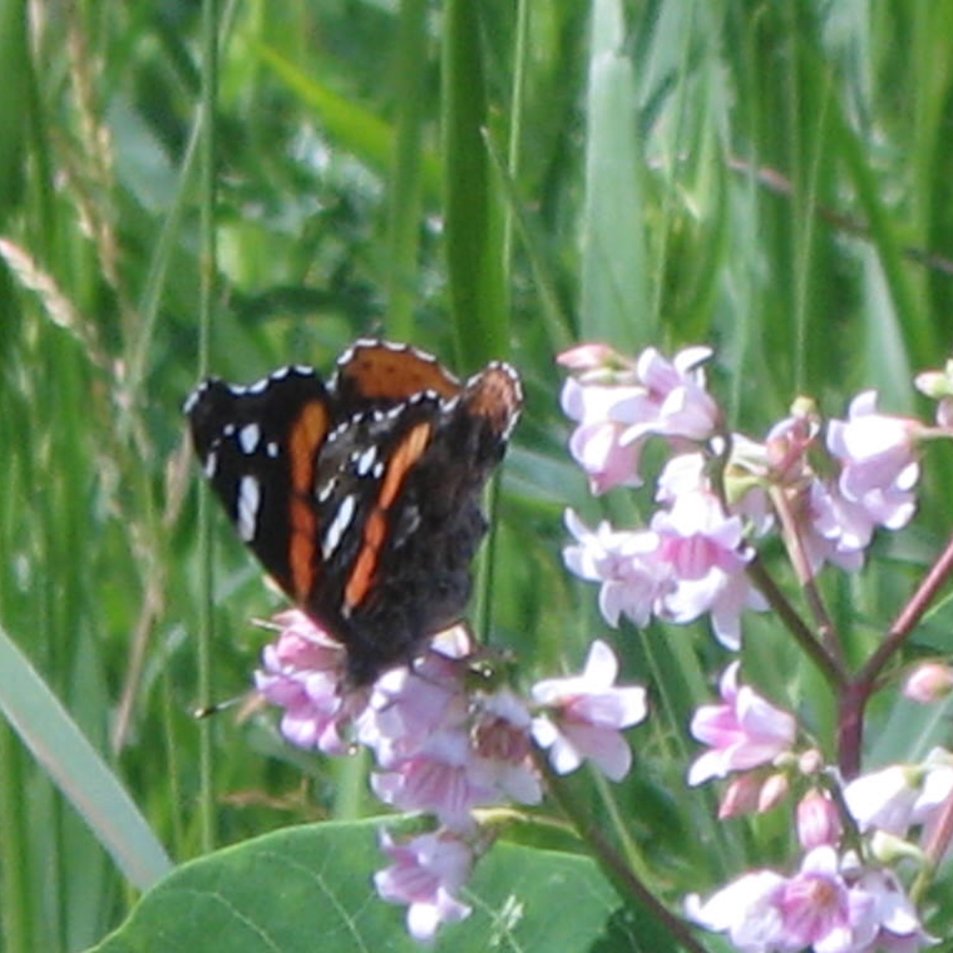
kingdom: Animalia
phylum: Arthropoda
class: Insecta
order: Lepidoptera
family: Nymphalidae
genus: Vanessa
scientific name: Vanessa atalanta
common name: Red Admiral
